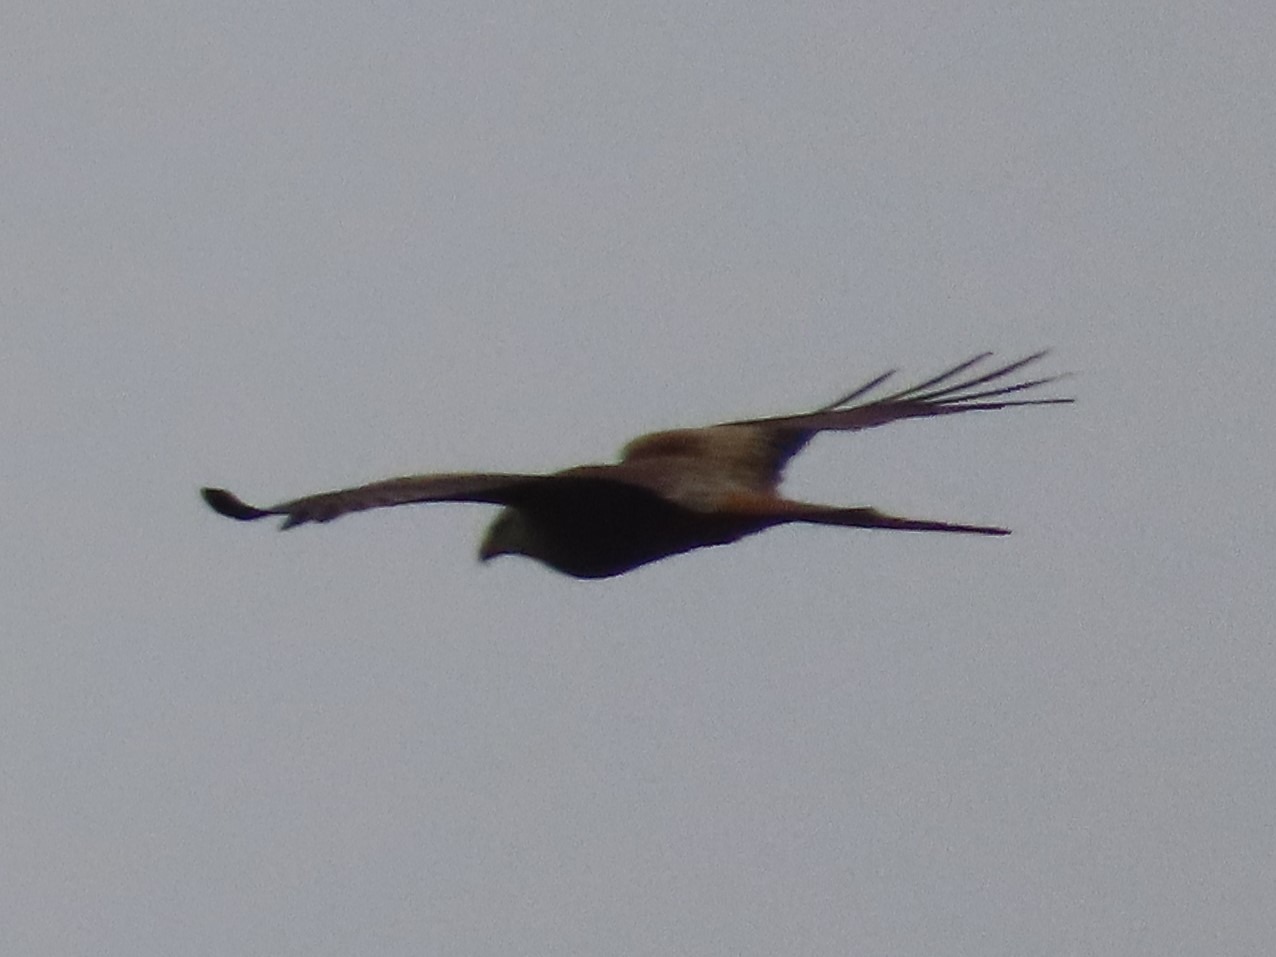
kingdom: Animalia
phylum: Chordata
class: Aves
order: Accipitriformes
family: Accipitridae
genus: Milvus
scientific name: Milvus milvus
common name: Rød glente
